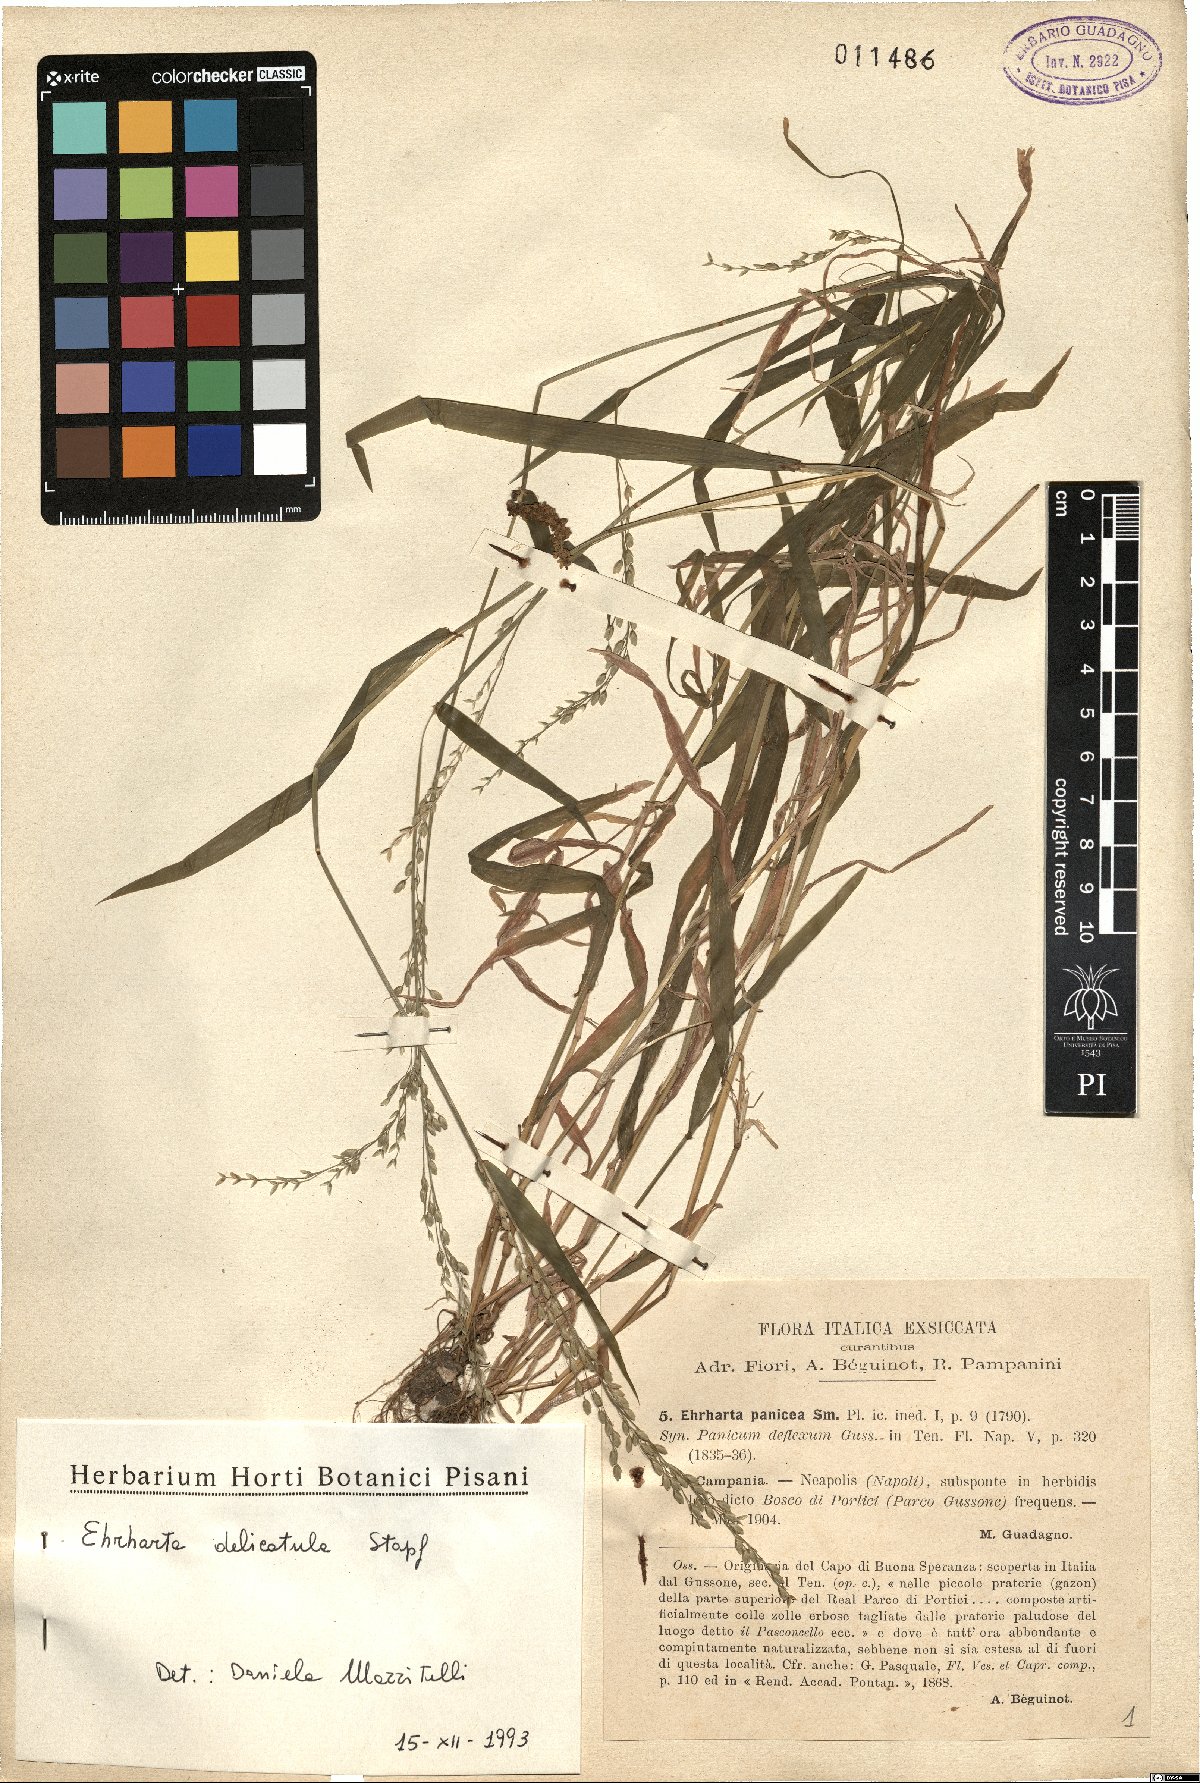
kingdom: Plantae
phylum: Tracheophyta
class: Liliopsida
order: Poales
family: Poaceae
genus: Ehrharta
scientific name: Ehrharta delicatula
